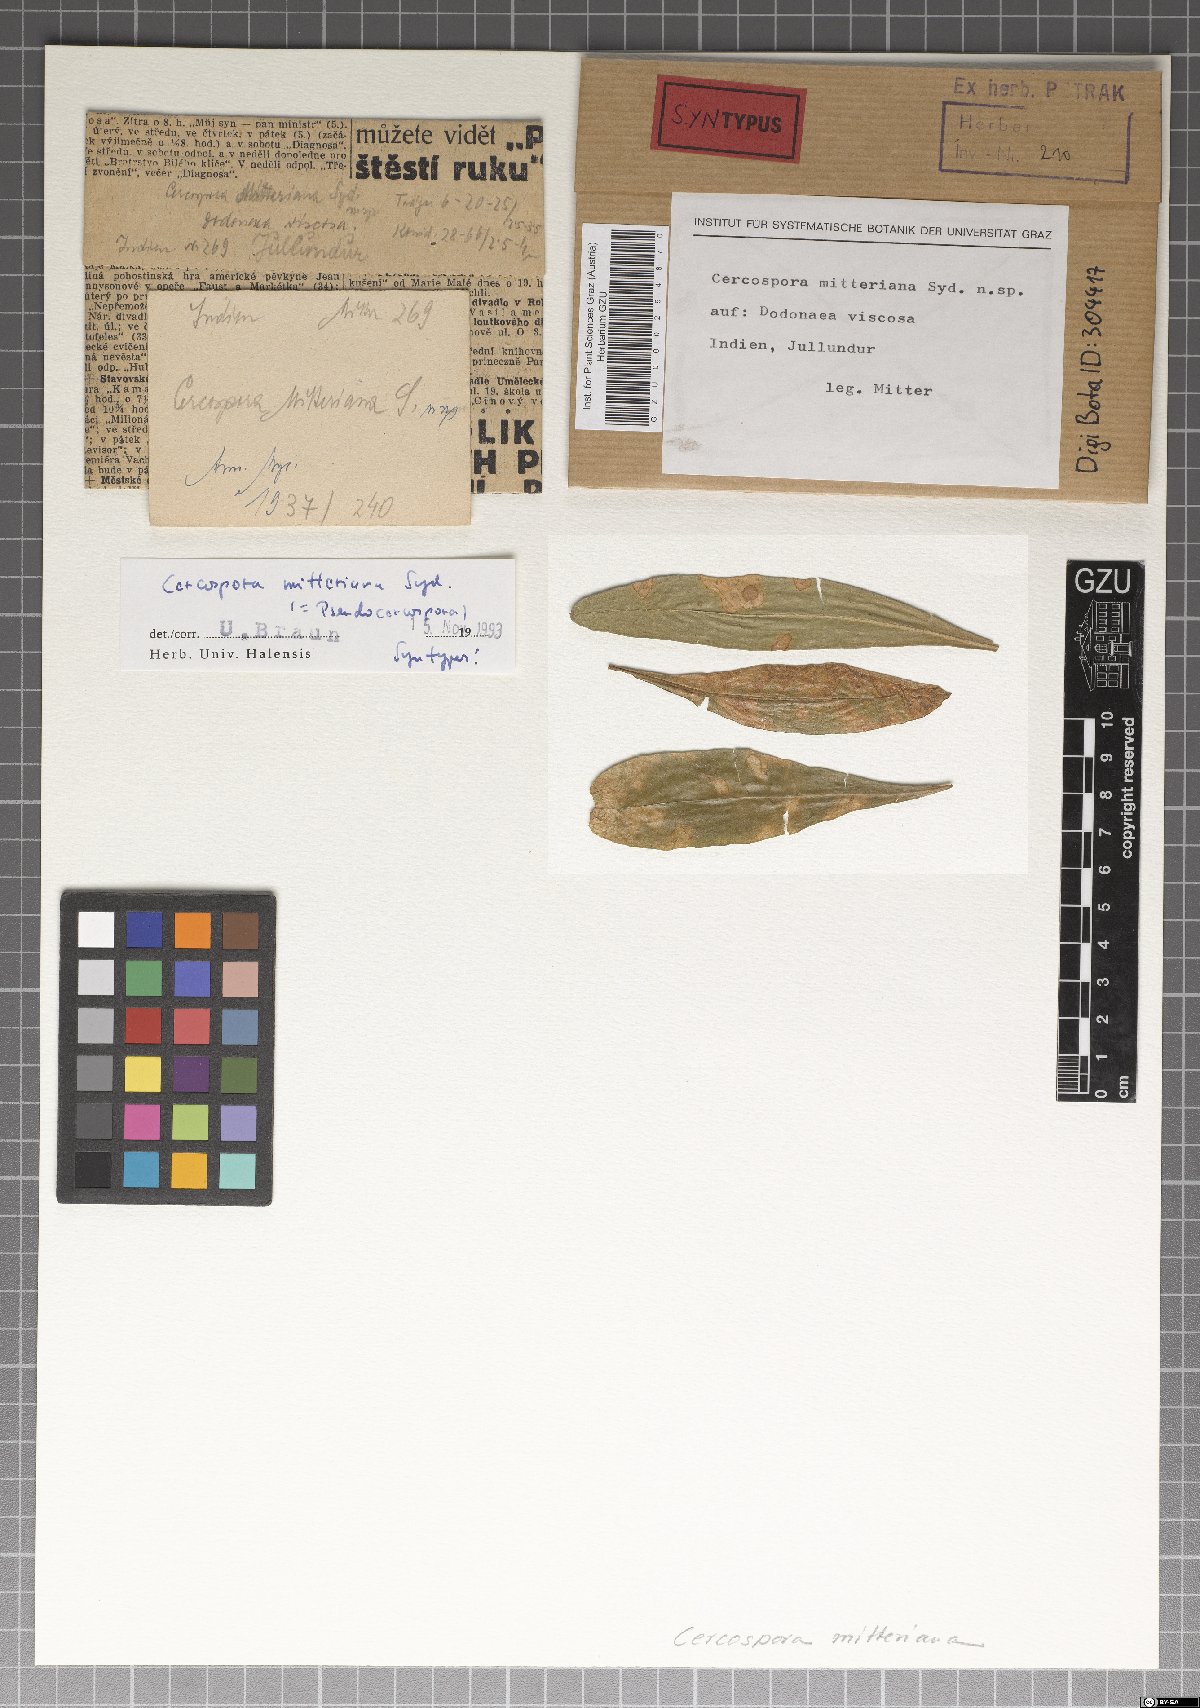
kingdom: Fungi
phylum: Ascomycota
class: Dothideomycetes
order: Mycosphaerellales
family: Mycosphaerellaceae
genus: Cercospora
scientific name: Cercospora
